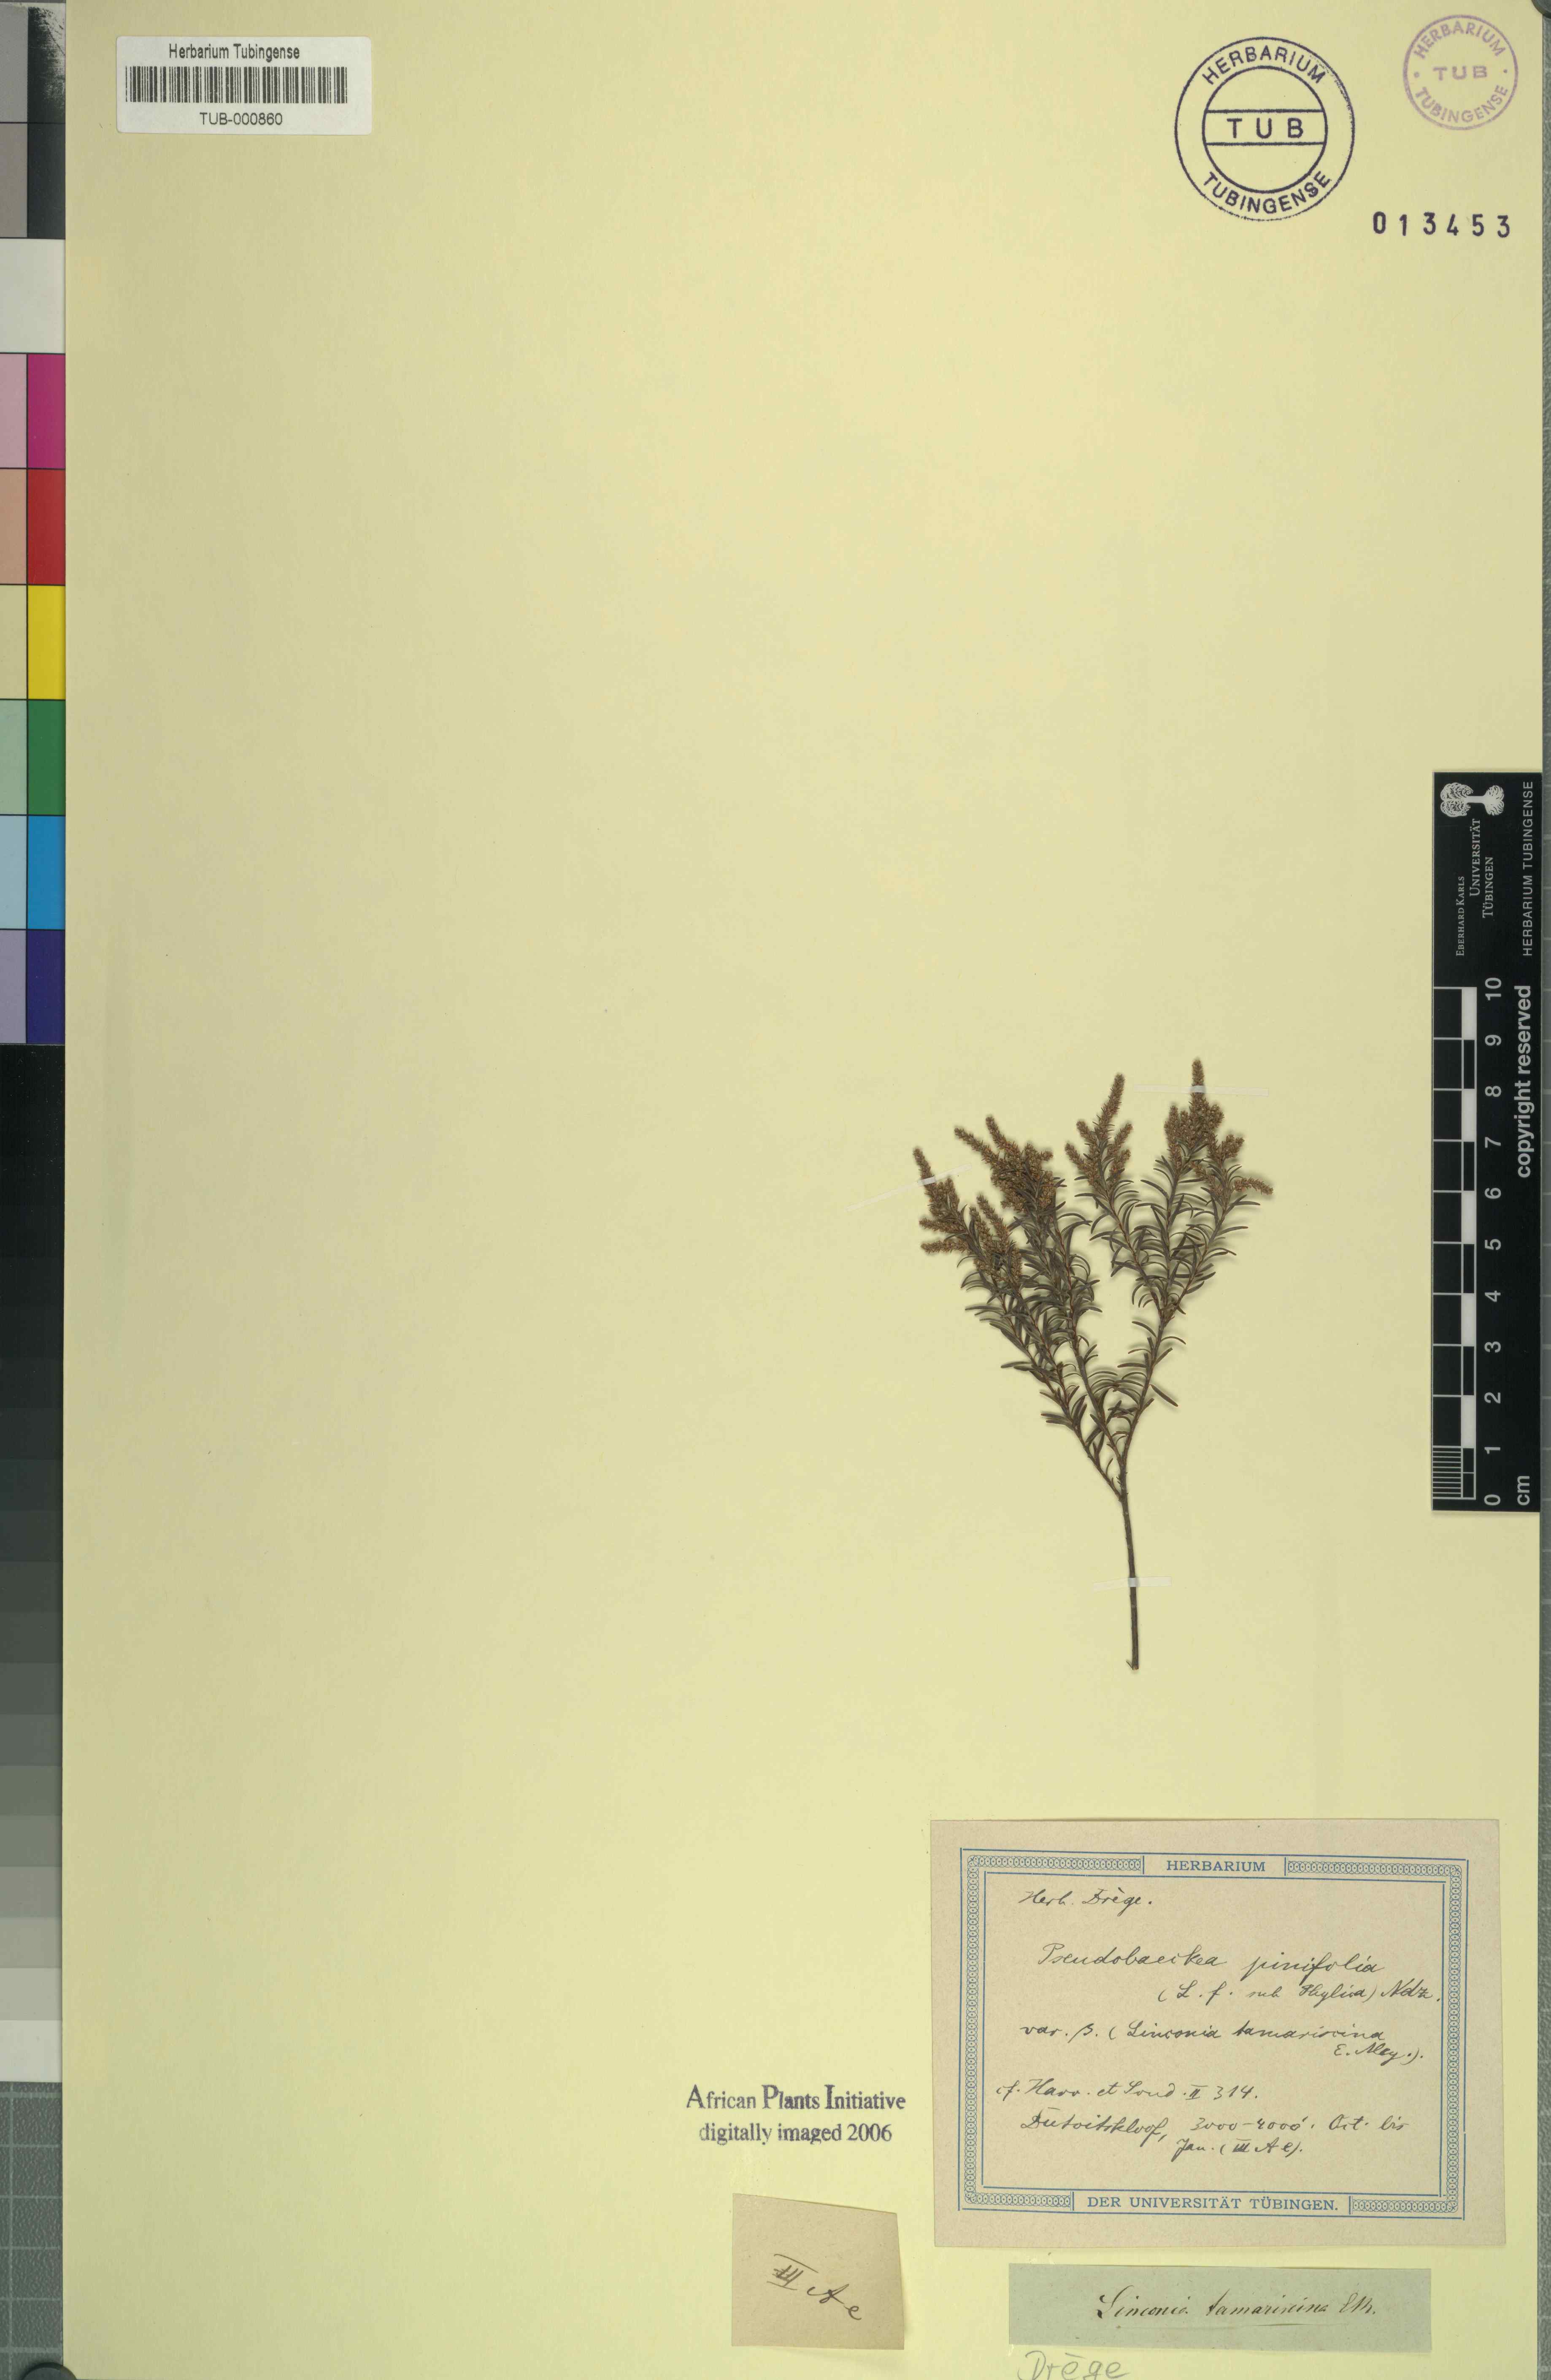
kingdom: Plantae
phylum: Tracheophyta
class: Magnoliopsida
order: Bruniales
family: Bruniaceae
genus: Brunia
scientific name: Brunia africana
